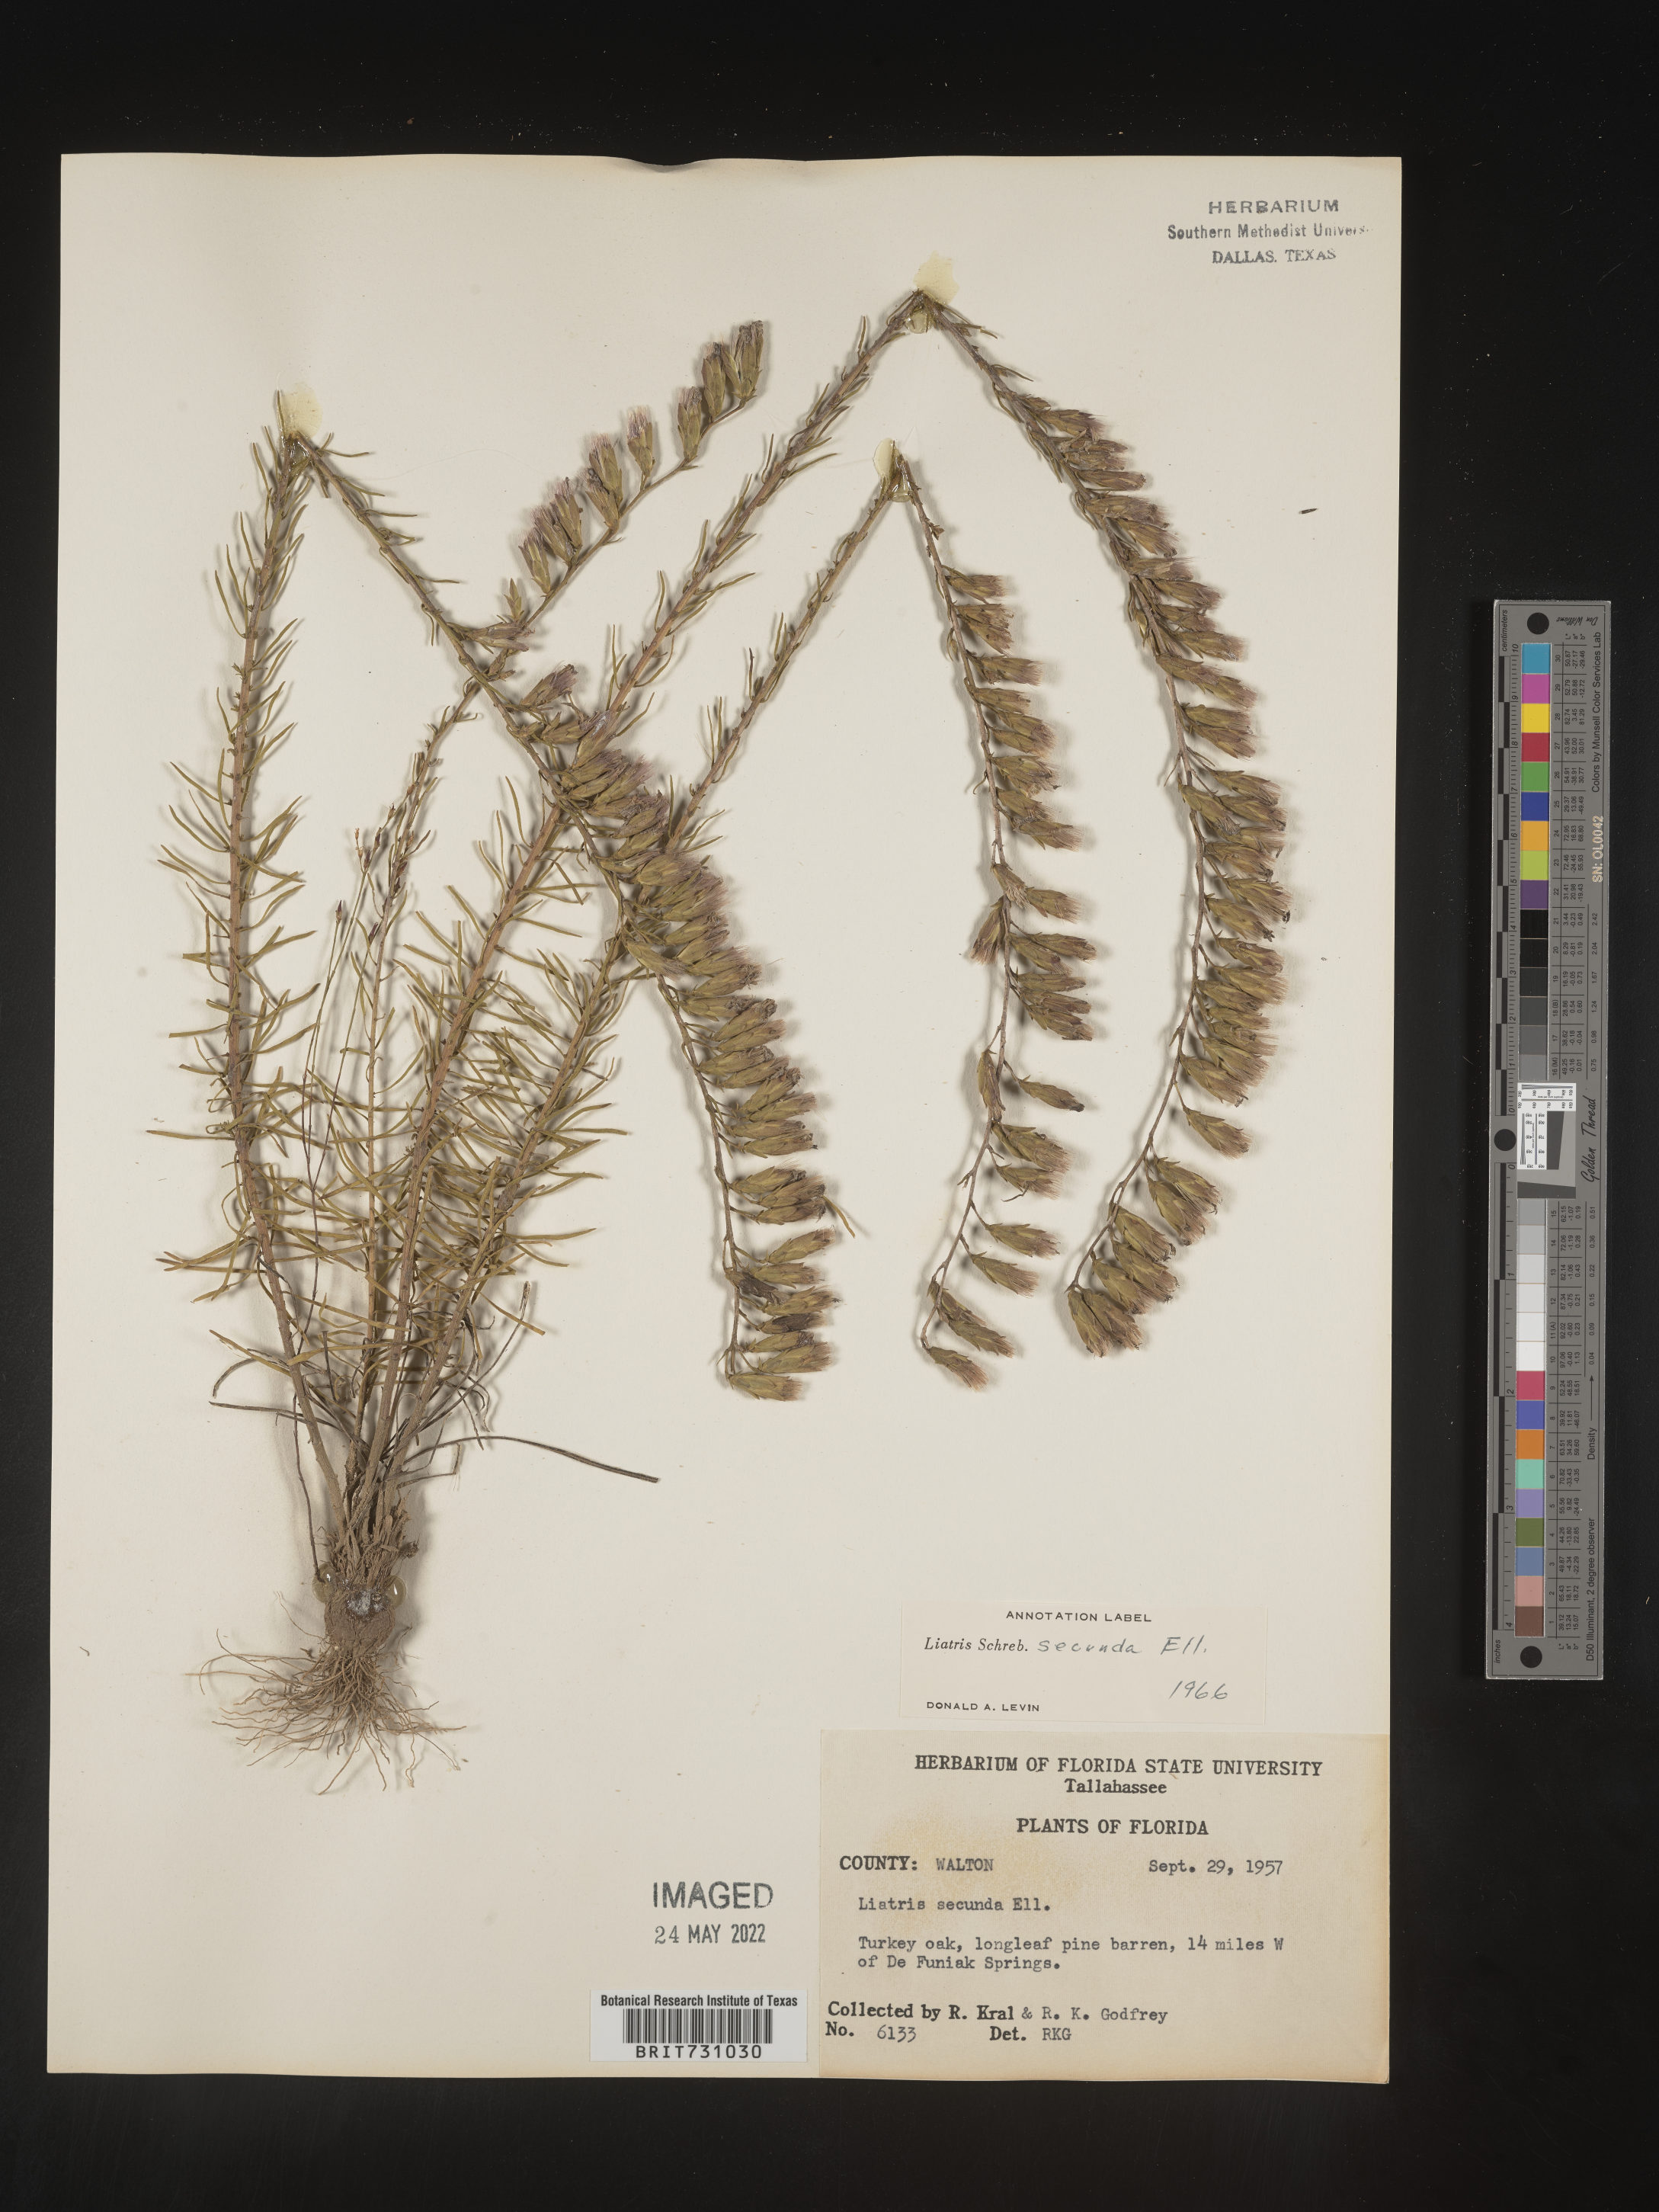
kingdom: Plantae
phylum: Tracheophyta
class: Magnoliopsida
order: Asterales
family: Asteraceae
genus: Liatris
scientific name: Liatris pauciflora
